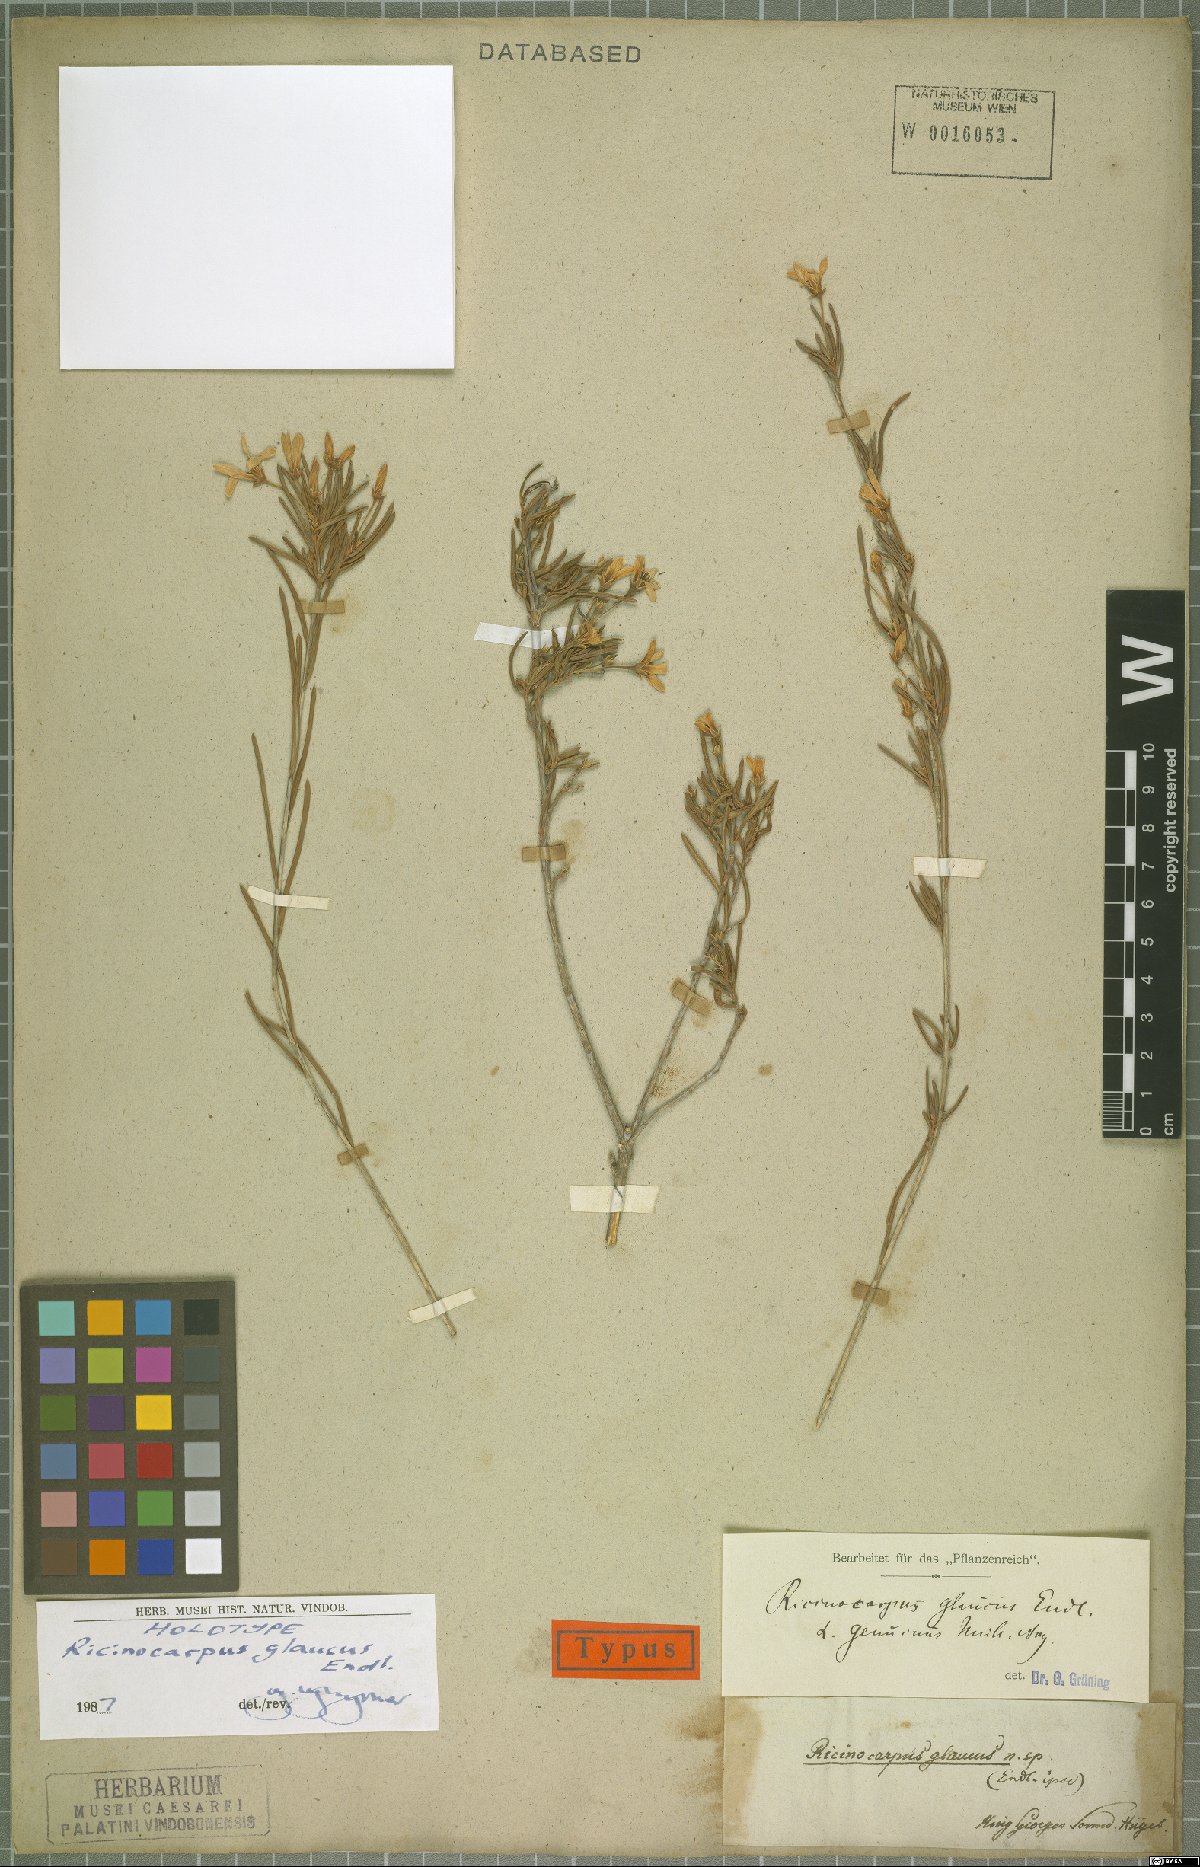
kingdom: Plantae
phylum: Tracheophyta
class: Magnoliopsida
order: Malpighiales
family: Euphorbiaceae
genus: Ricinocarpos
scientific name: Ricinocarpos glaucus
